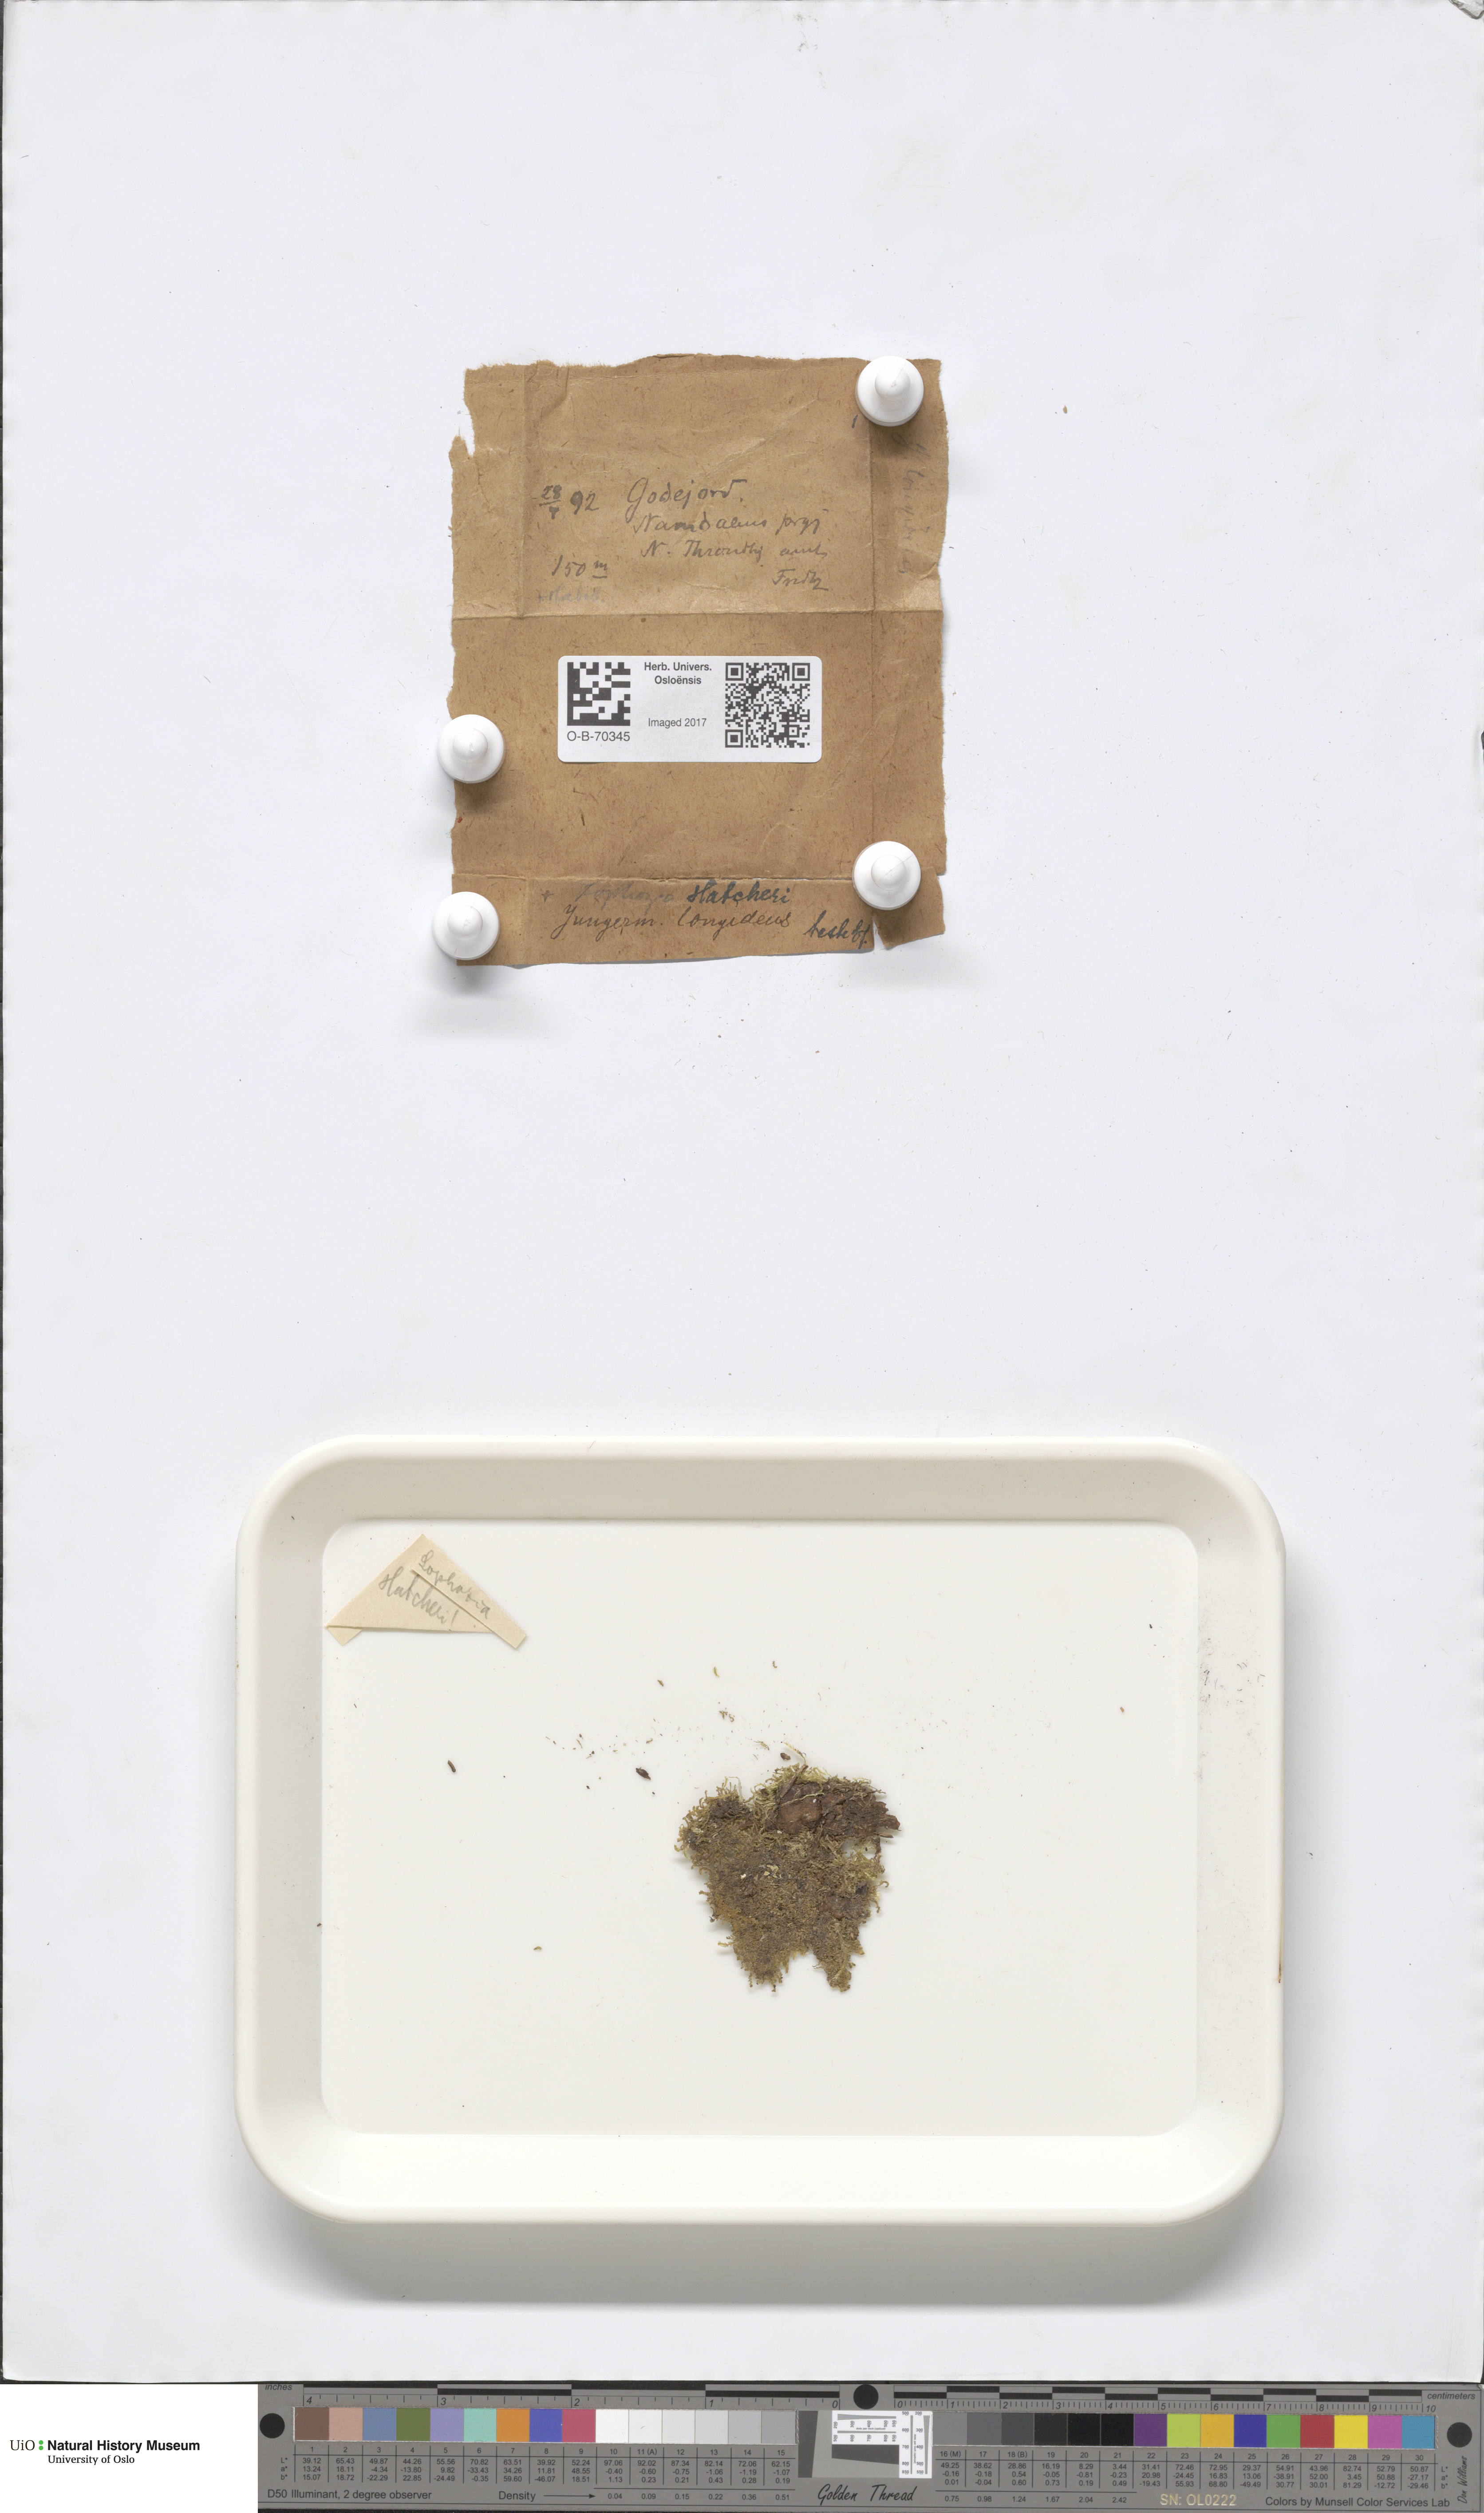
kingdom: Plantae
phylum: Marchantiophyta
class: Jungermanniopsida
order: Jungermanniales
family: Anastrophyllaceae
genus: Barbilophozia
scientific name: Barbilophozia hatcheri
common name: Hatcher s pawwort
